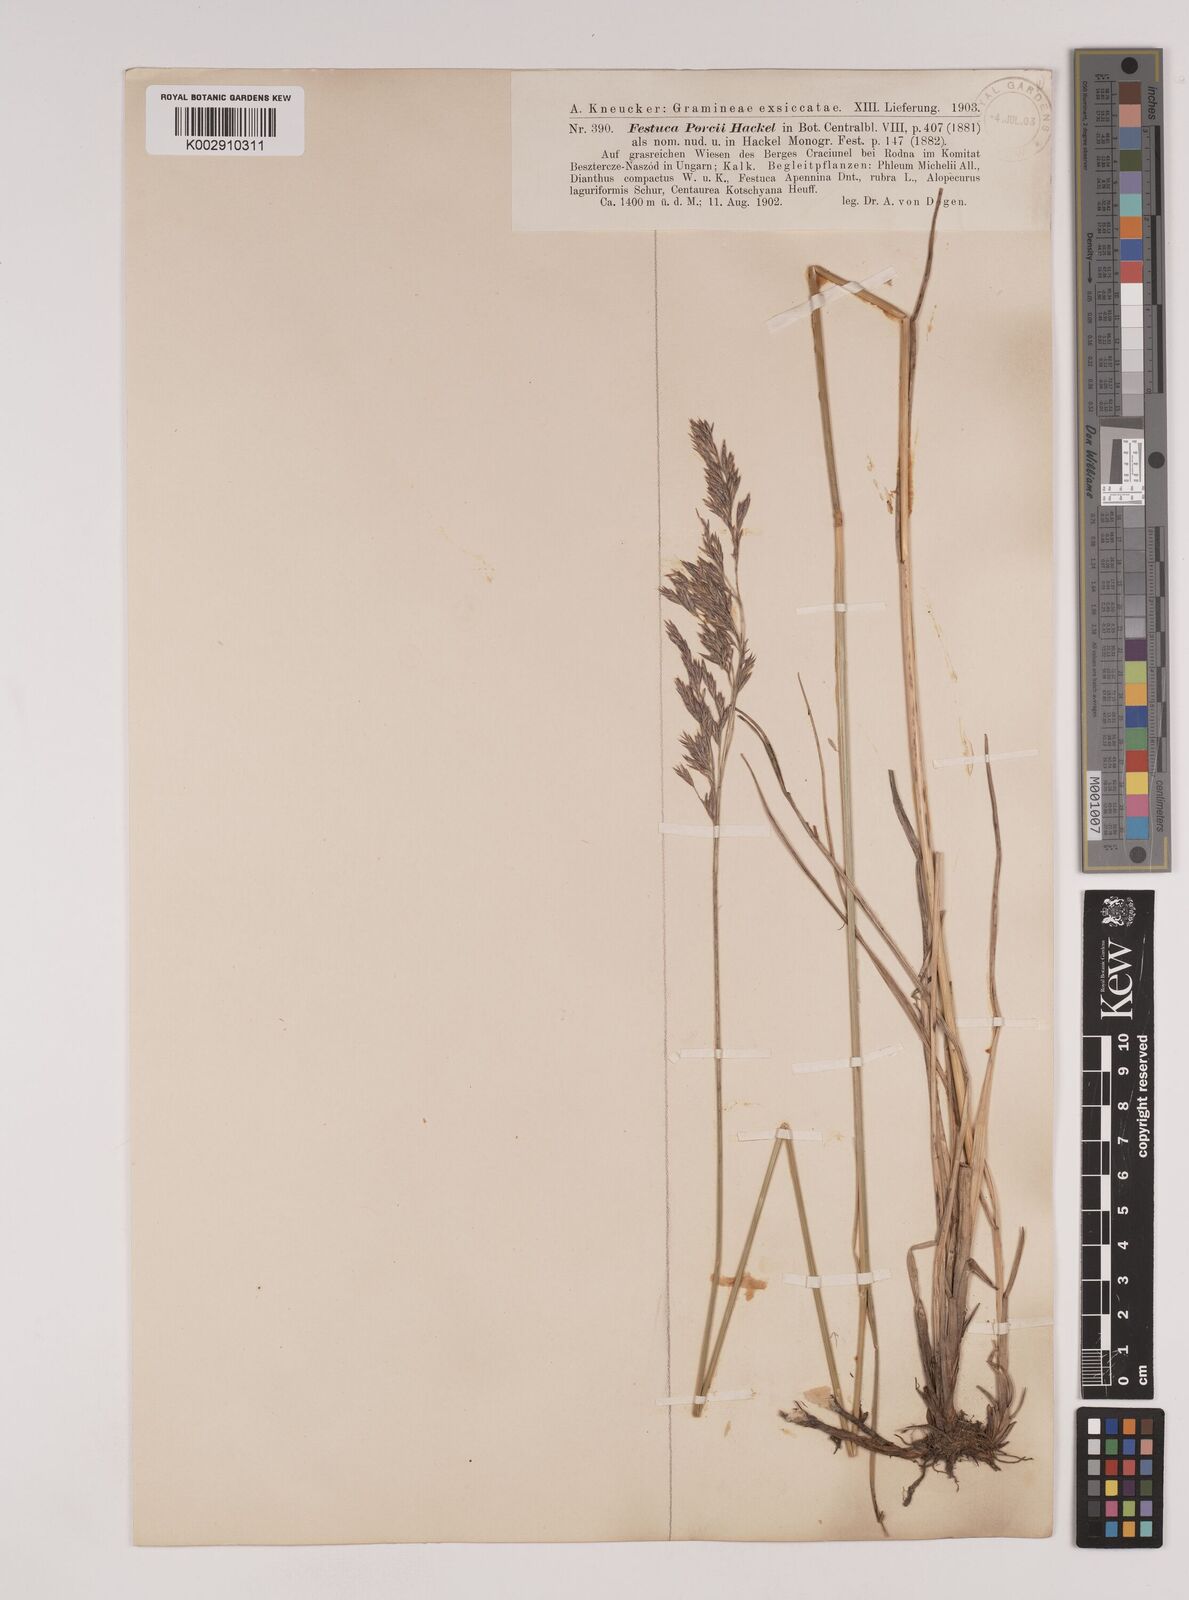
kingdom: Plantae
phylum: Tracheophyta
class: Liliopsida
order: Poales
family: Poaceae
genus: Festuca
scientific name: Festuca porcii
